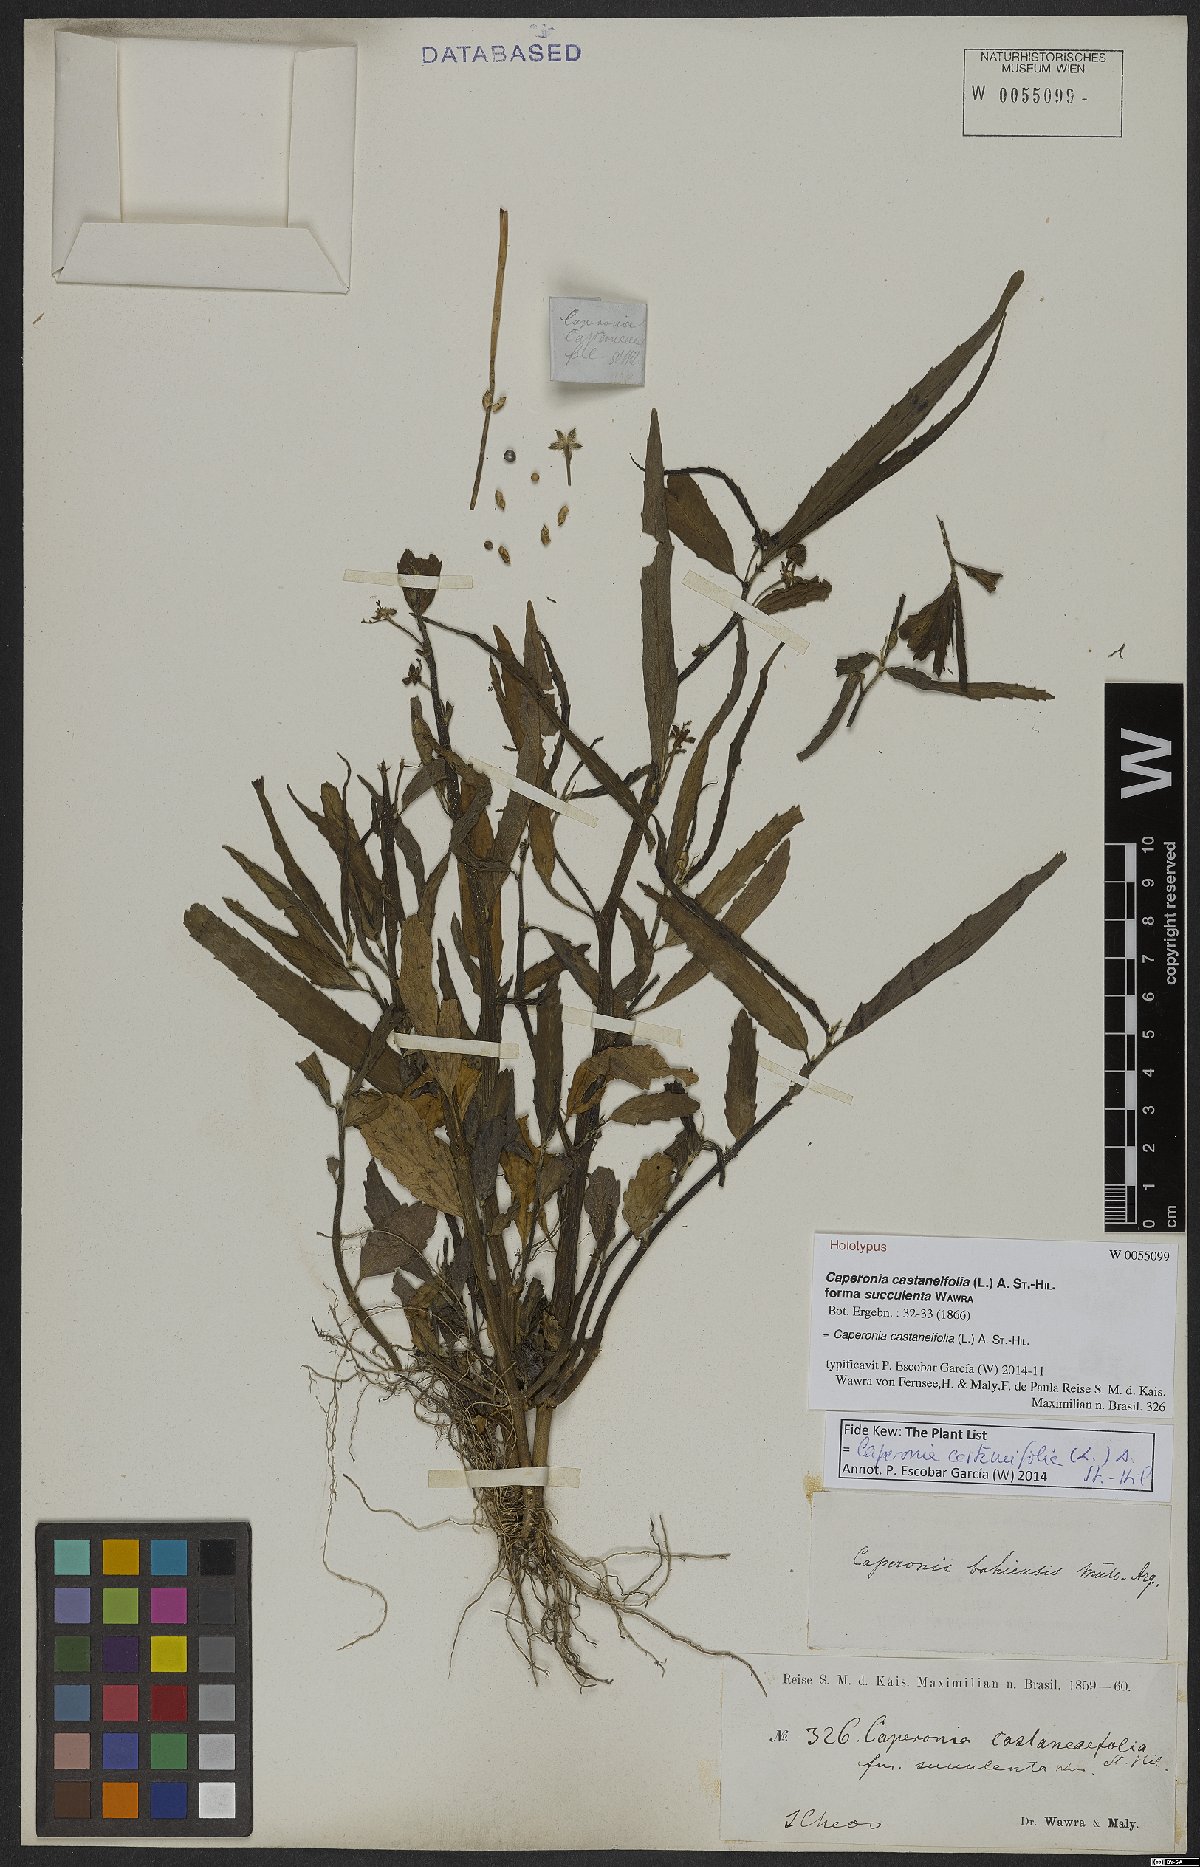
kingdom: Plantae
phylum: Tracheophyta
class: Magnoliopsida
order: Malpighiales
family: Euphorbiaceae
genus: Caperonia
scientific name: Caperonia castaneifolia
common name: Chestnutleaf false croton
